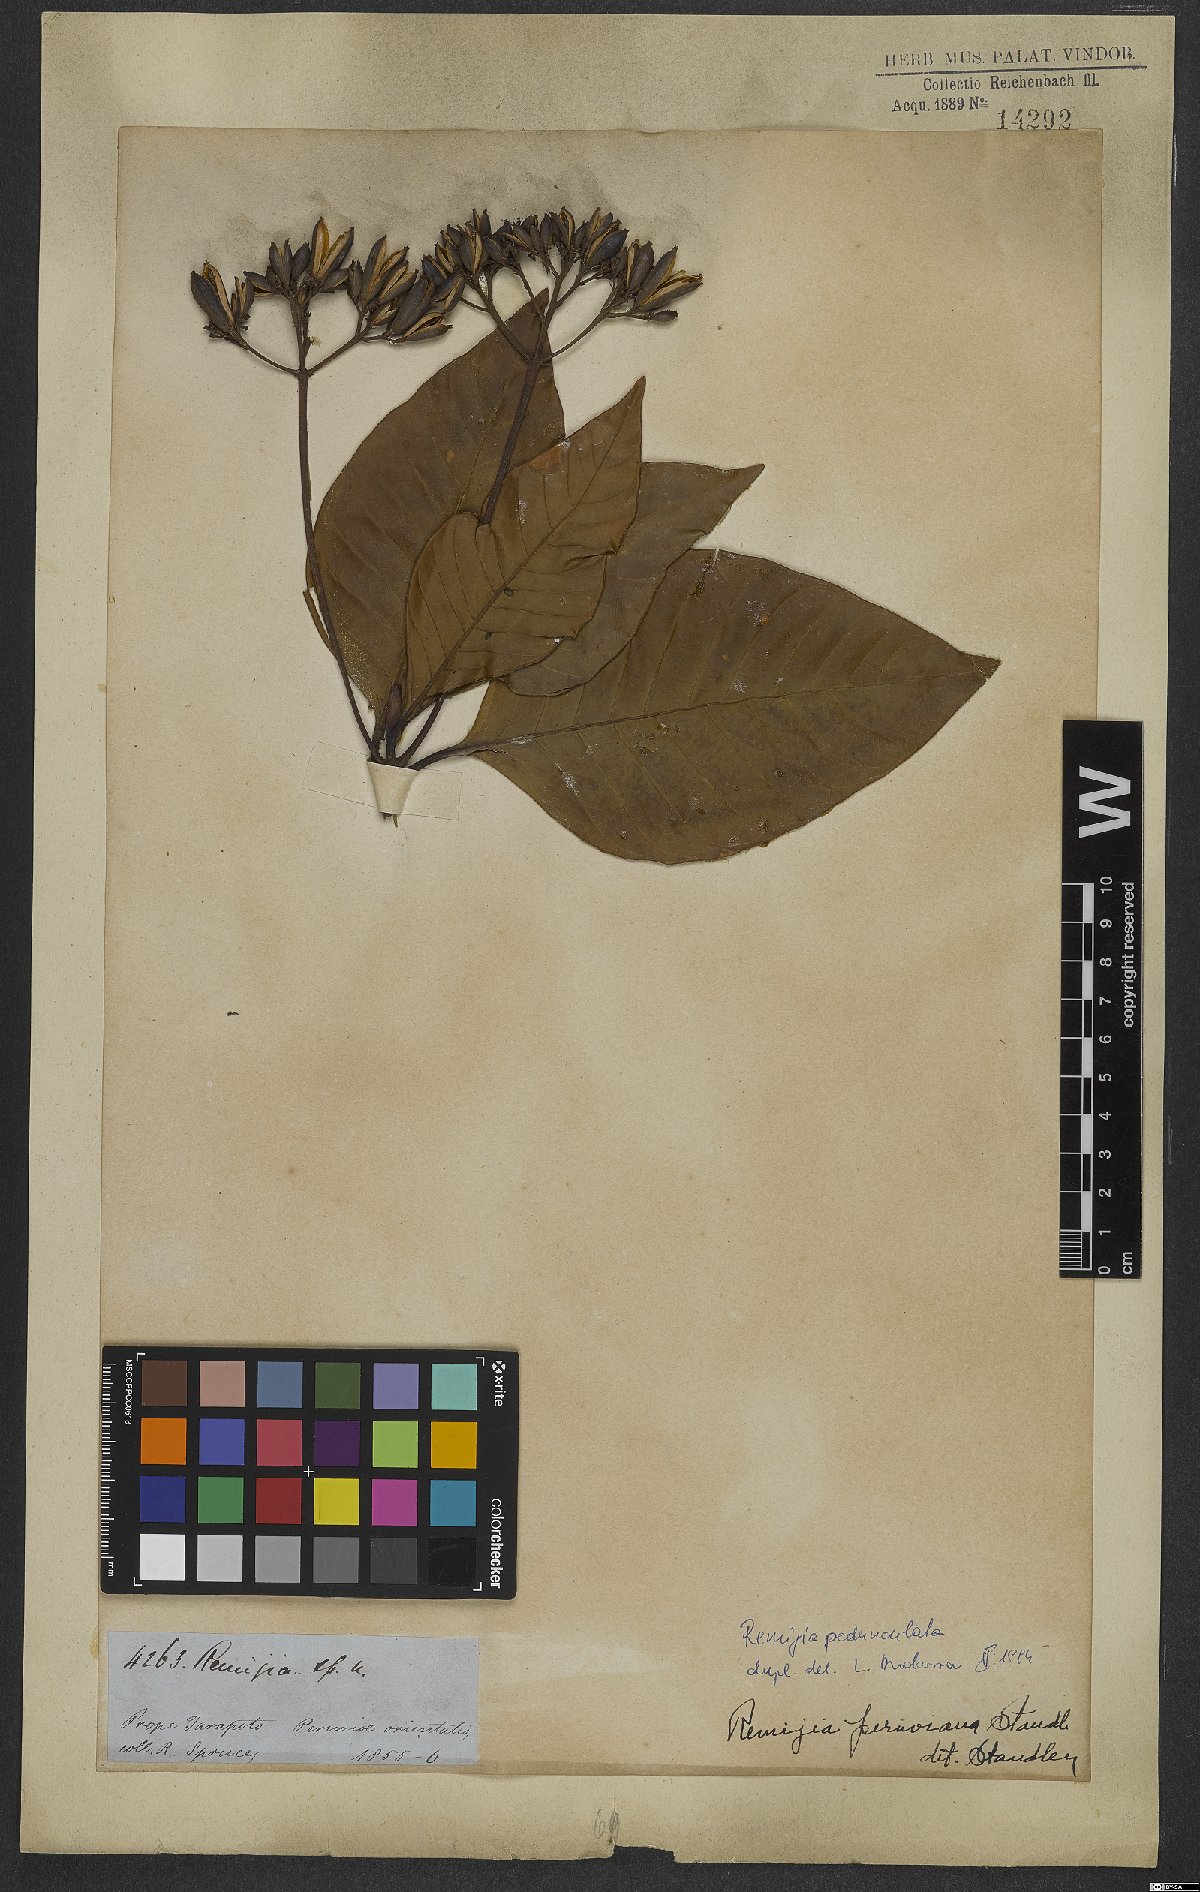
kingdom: Plantae
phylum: Tracheophyta
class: Magnoliopsida
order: Gentianales
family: Rubiaceae
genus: Ciliosemina
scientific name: Ciliosemina pedunculata
